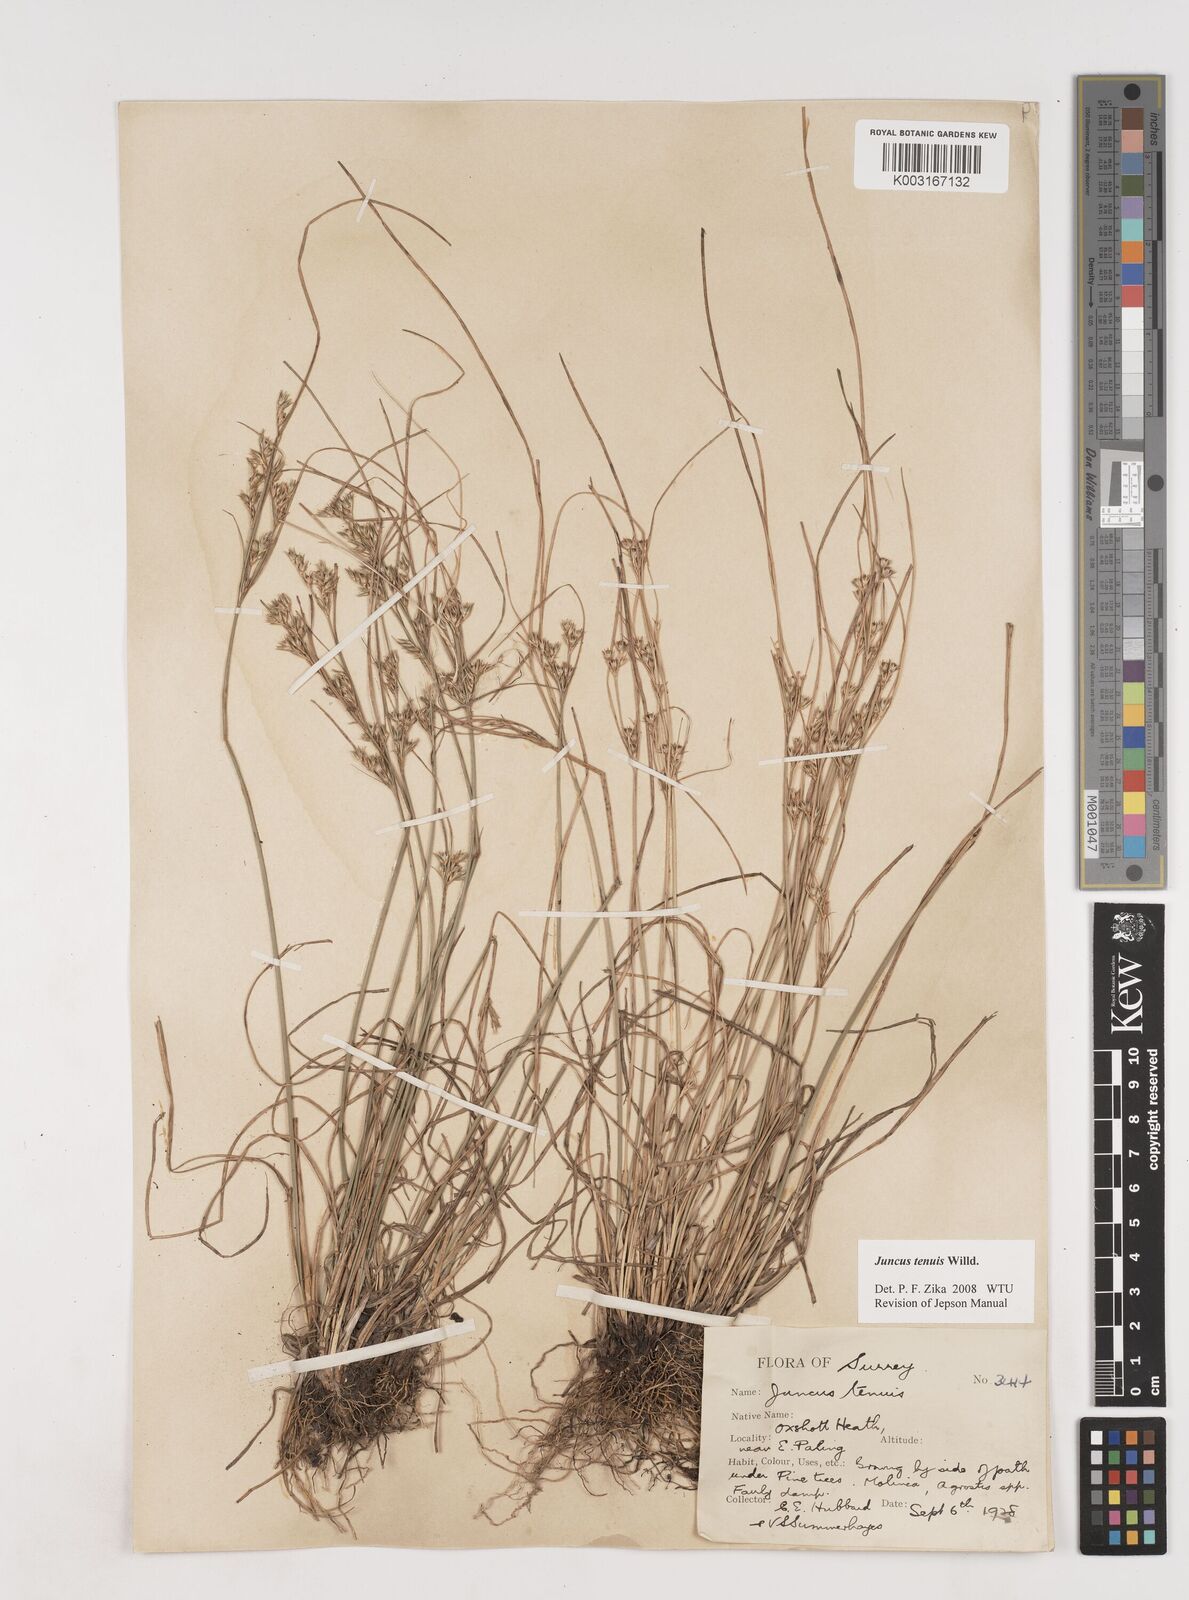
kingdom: Plantae
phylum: Tracheophyta
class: Liliopsida
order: Poales
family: Juncaceae
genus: Juncus
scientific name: Juncus tenuis
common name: Slender rush
